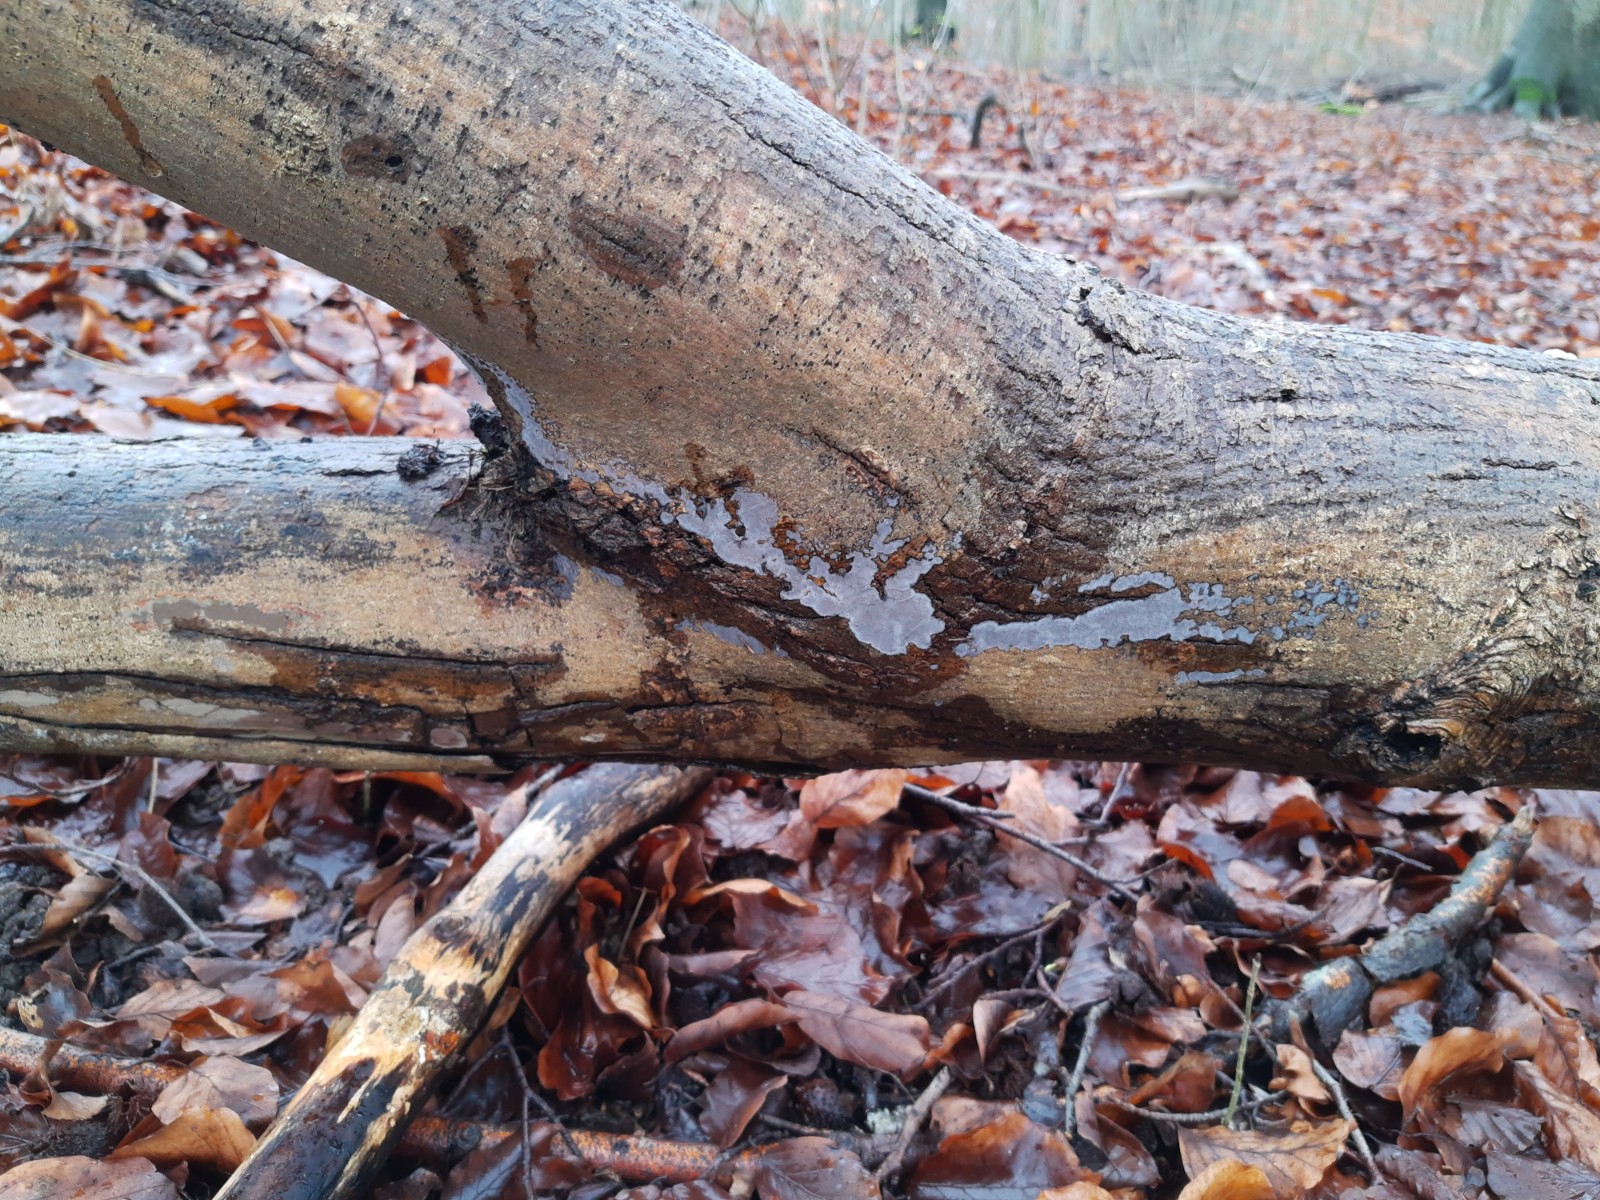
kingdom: Fungi
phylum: Basidiomycota
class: Agaricomycetes
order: Russulales
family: Peniophoraceae
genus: Peniophora
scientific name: Peniophora limitata
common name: mørkrandet voksskind
